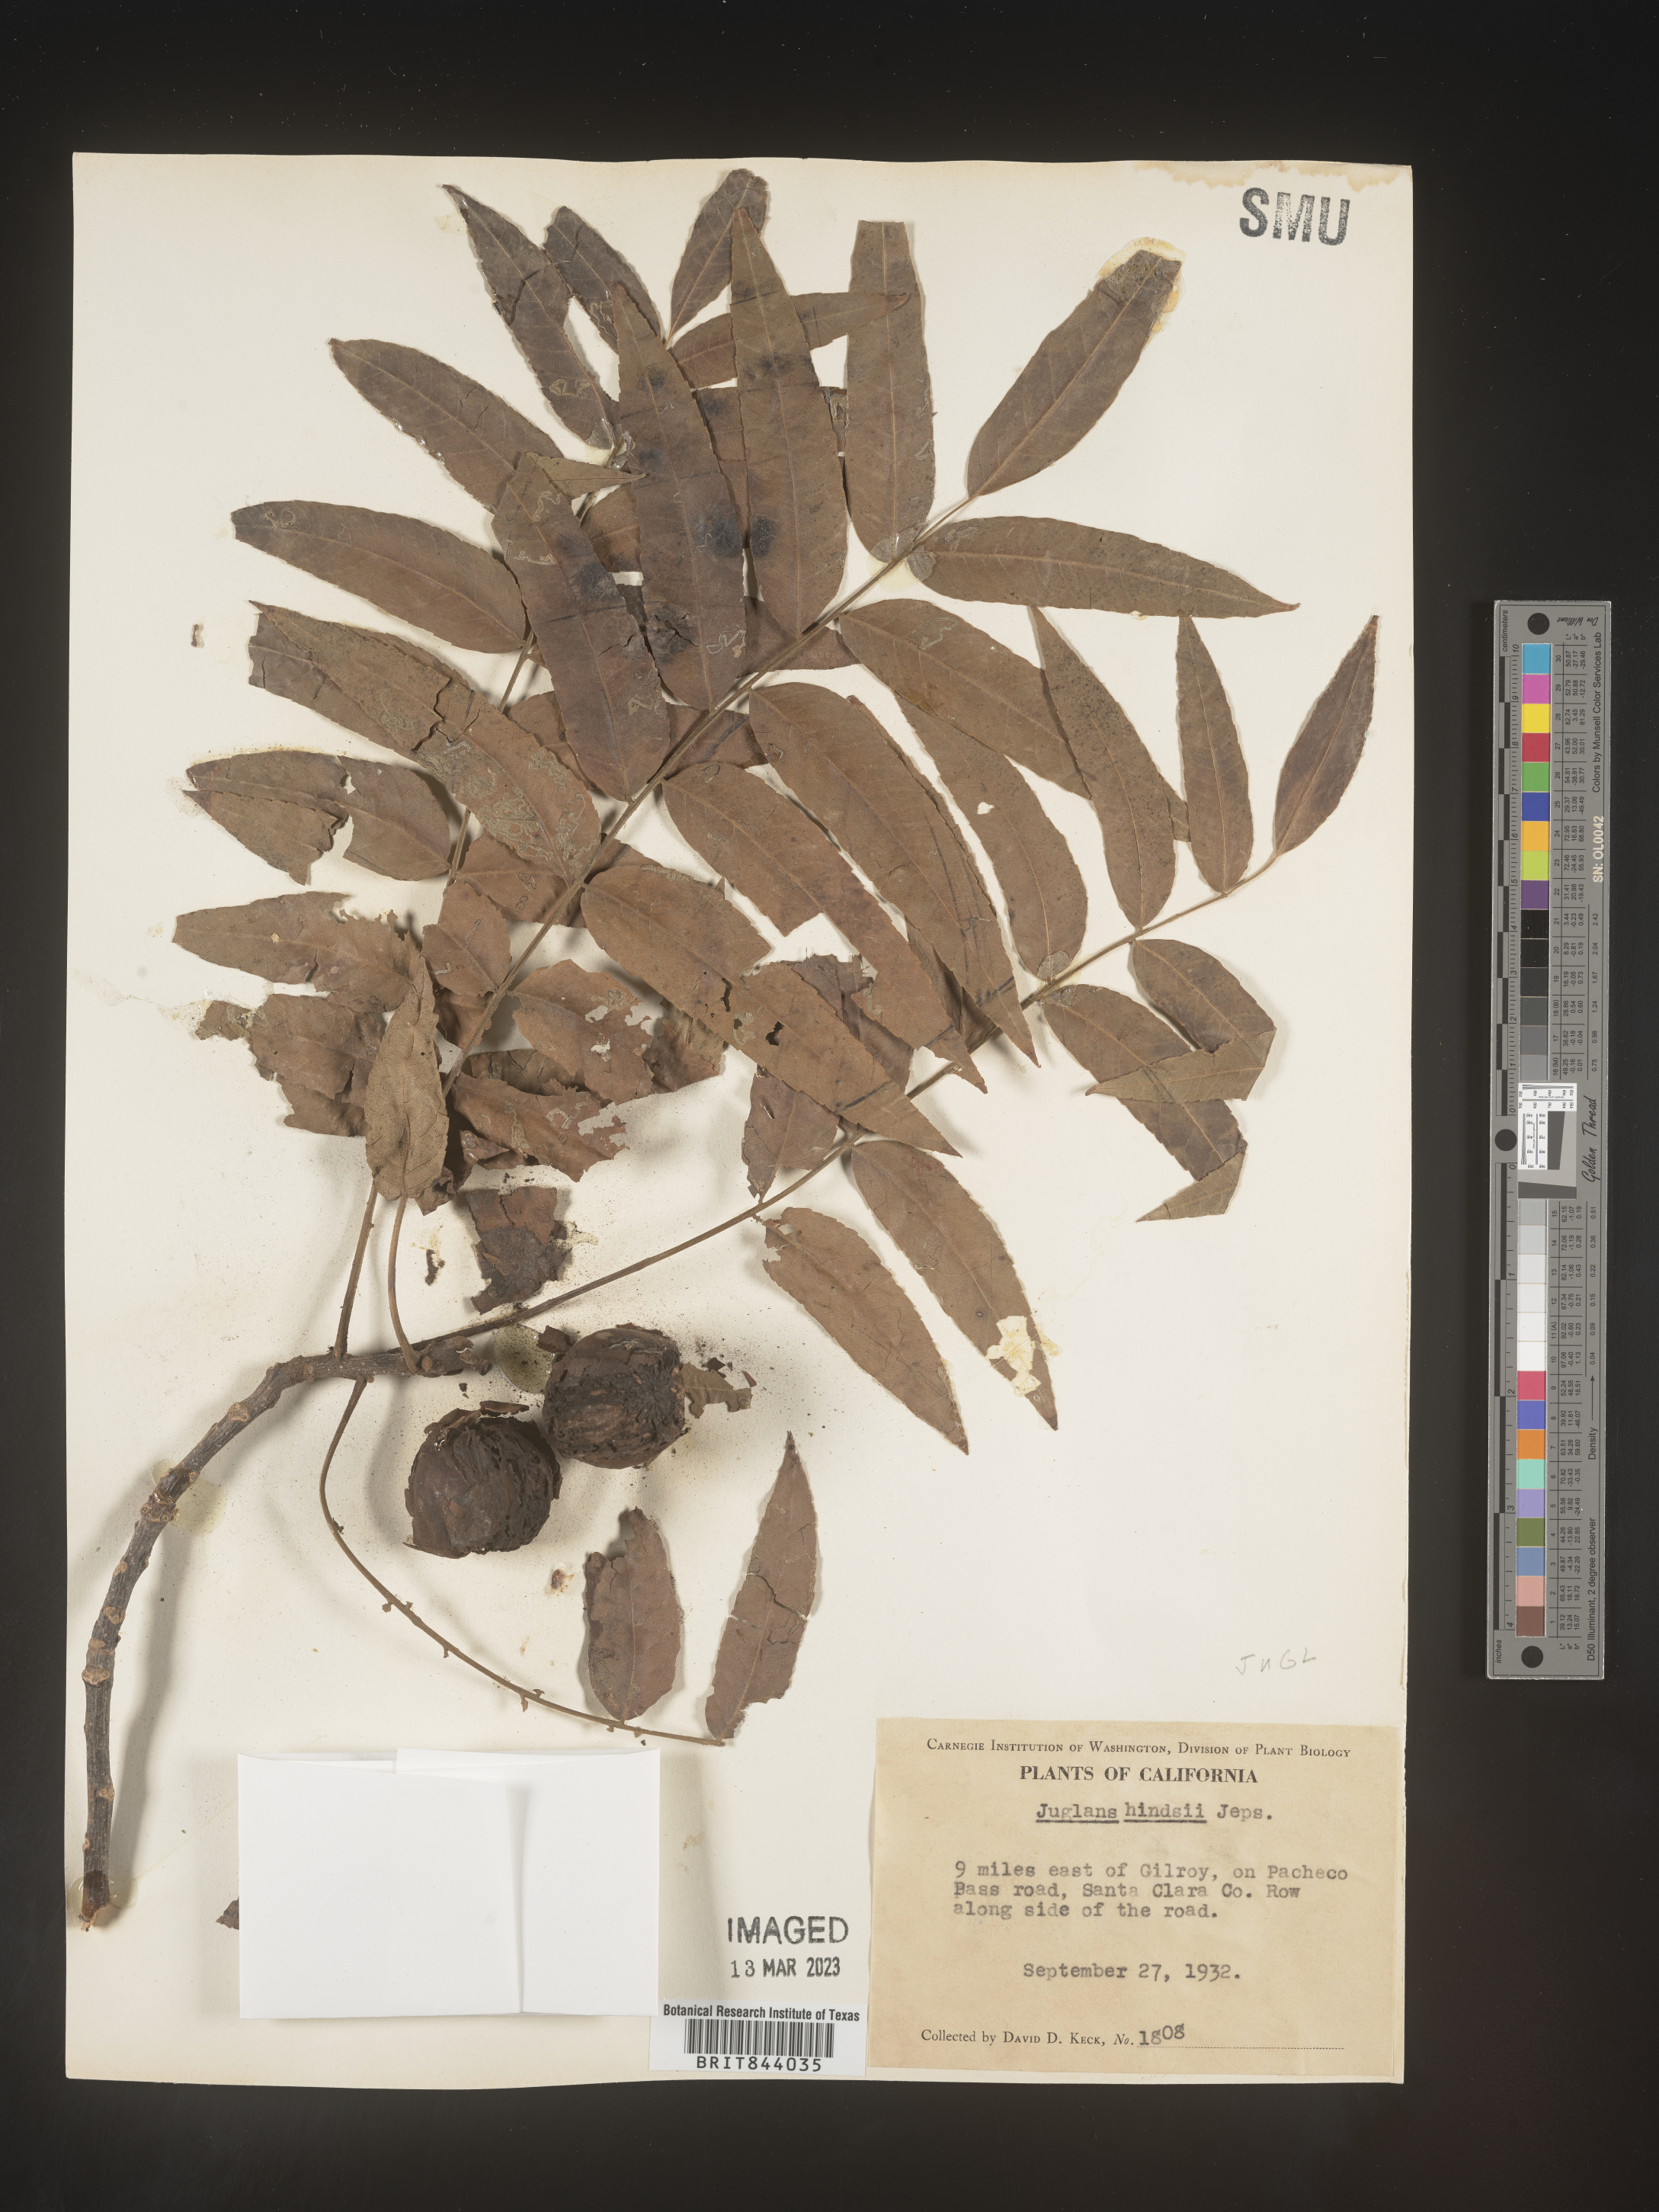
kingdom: Plantae
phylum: Tracheophyta
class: Magnoliopsida
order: Fagales
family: Juglandaceae
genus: Juglans
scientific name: Juglans major
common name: Arizona walnut
